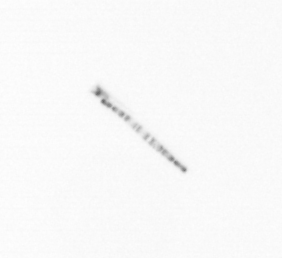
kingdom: Chromista
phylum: Ochrophyta
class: Bacillariophyceae
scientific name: Bacillariophyceae
